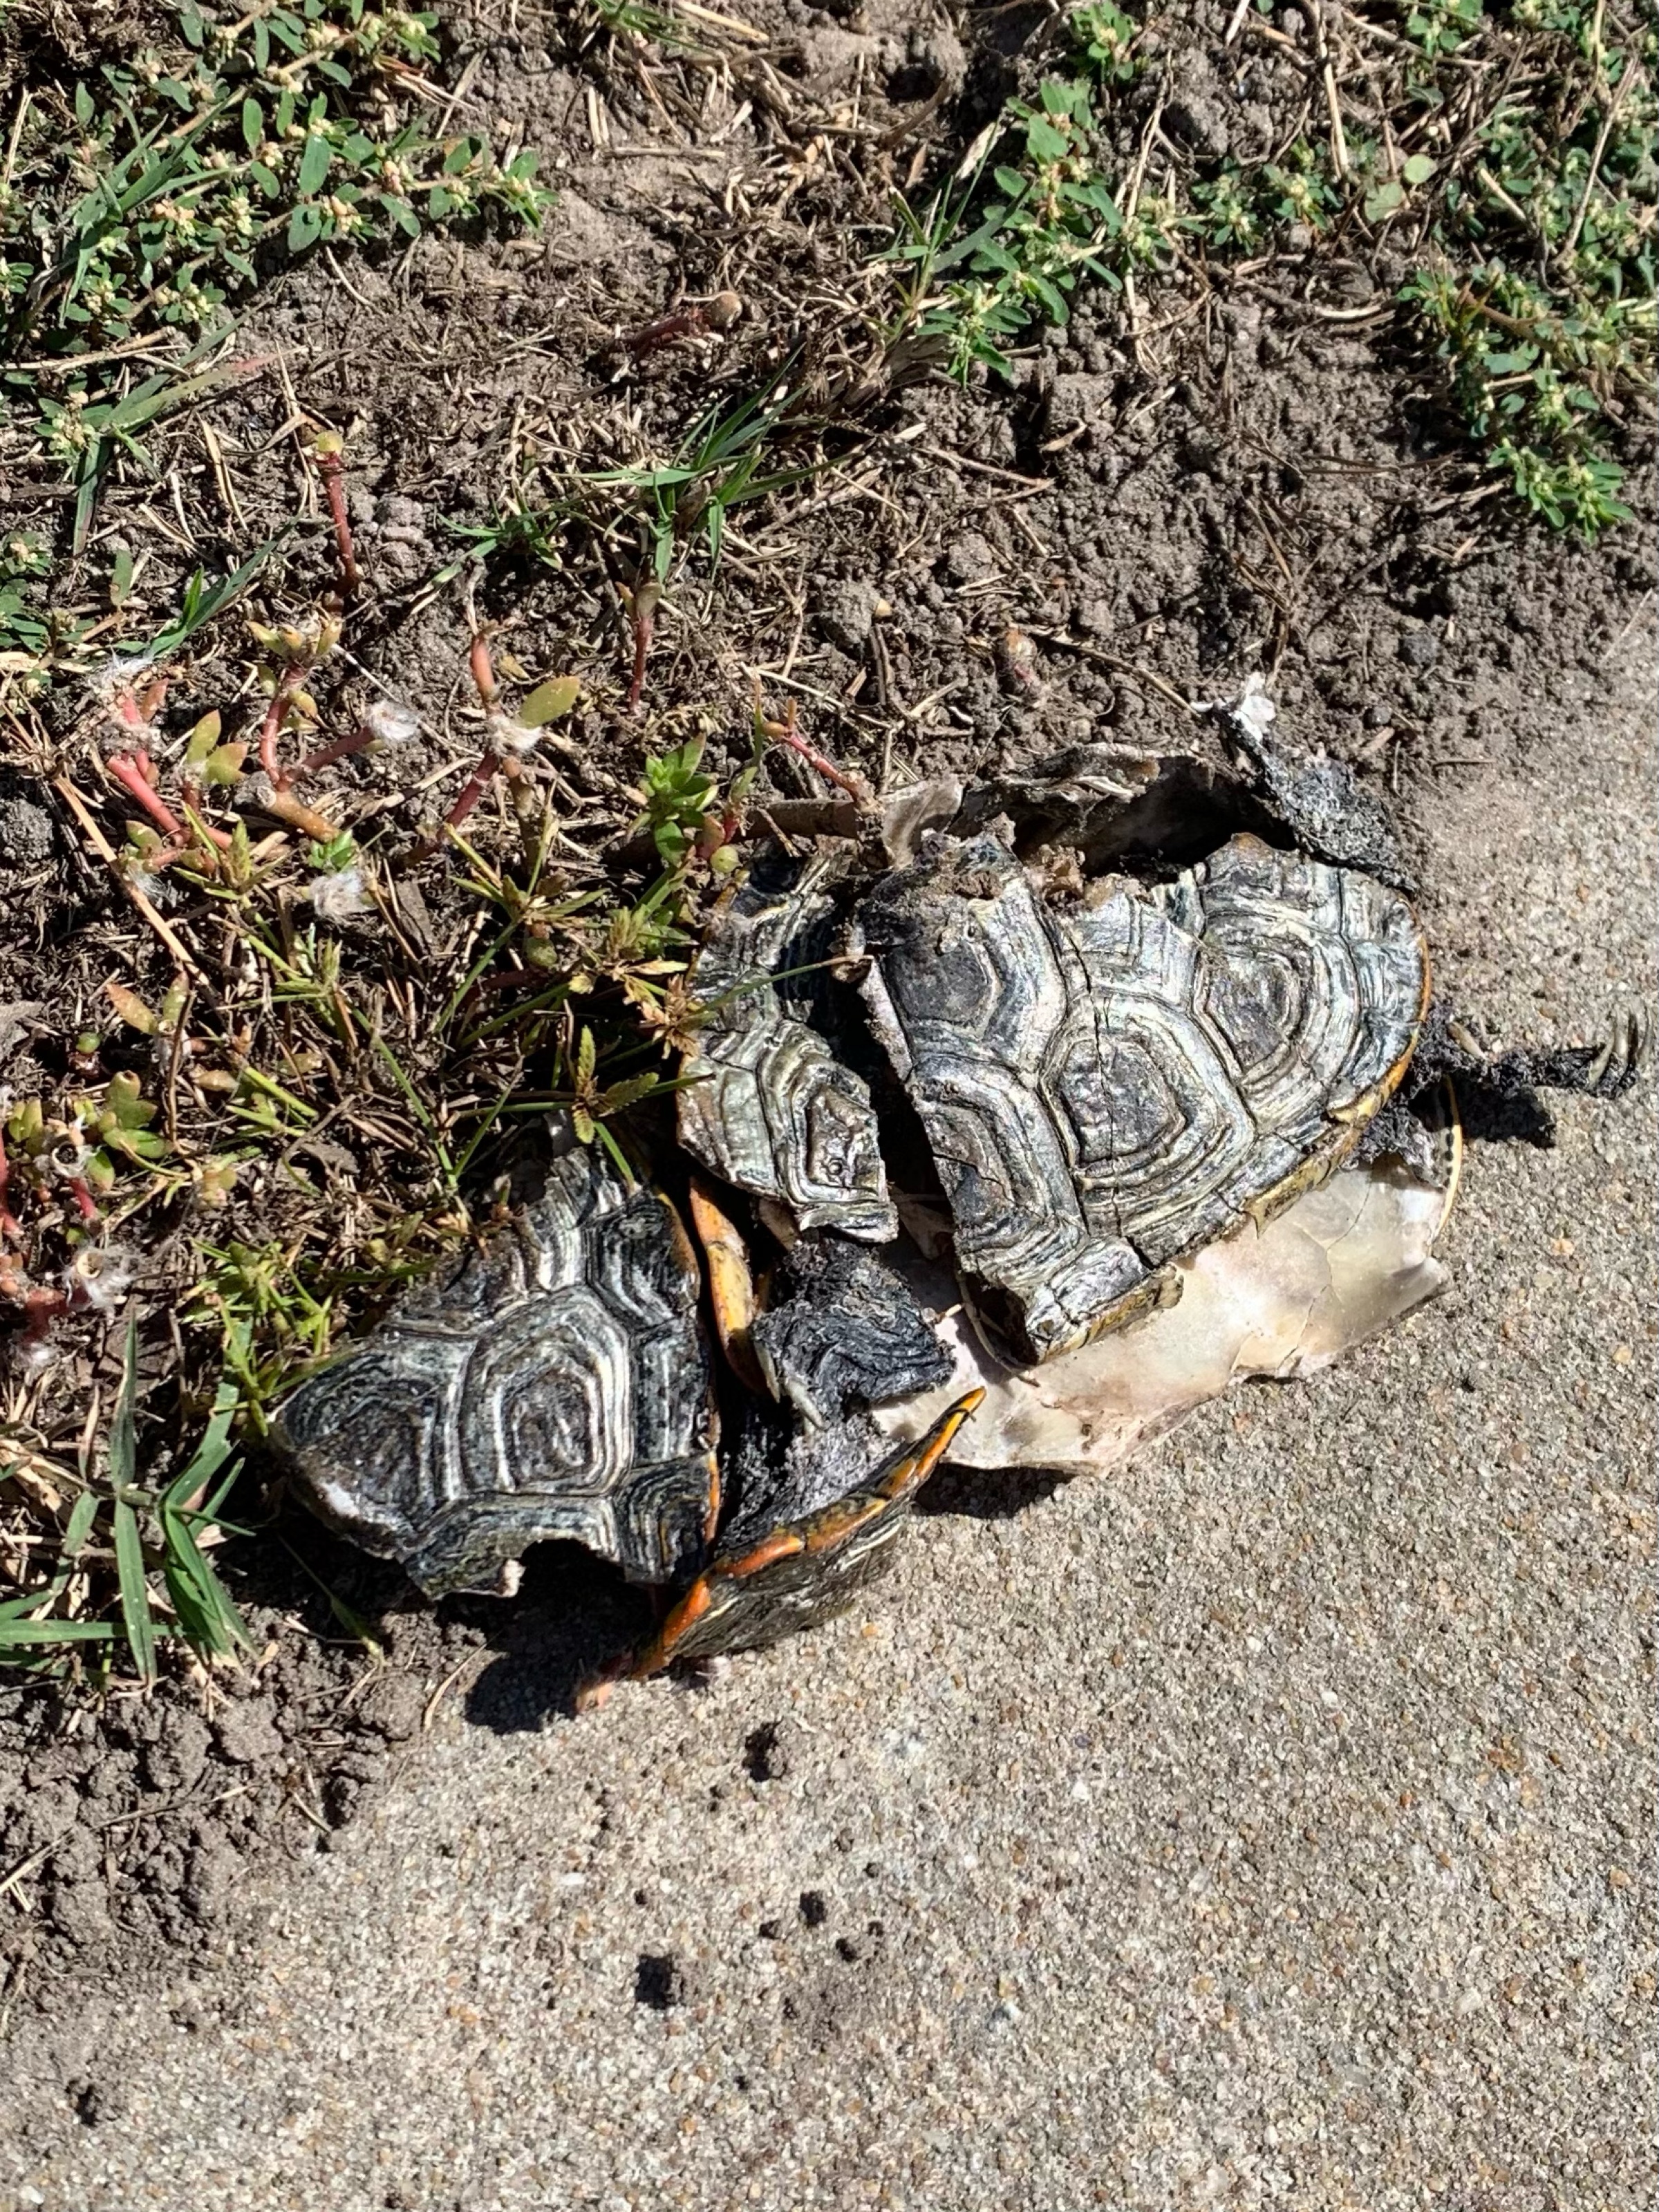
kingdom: Animalia
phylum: Chordata
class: Testudines
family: Emydidae
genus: Malaclemys
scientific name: Malaclemys terrapin
